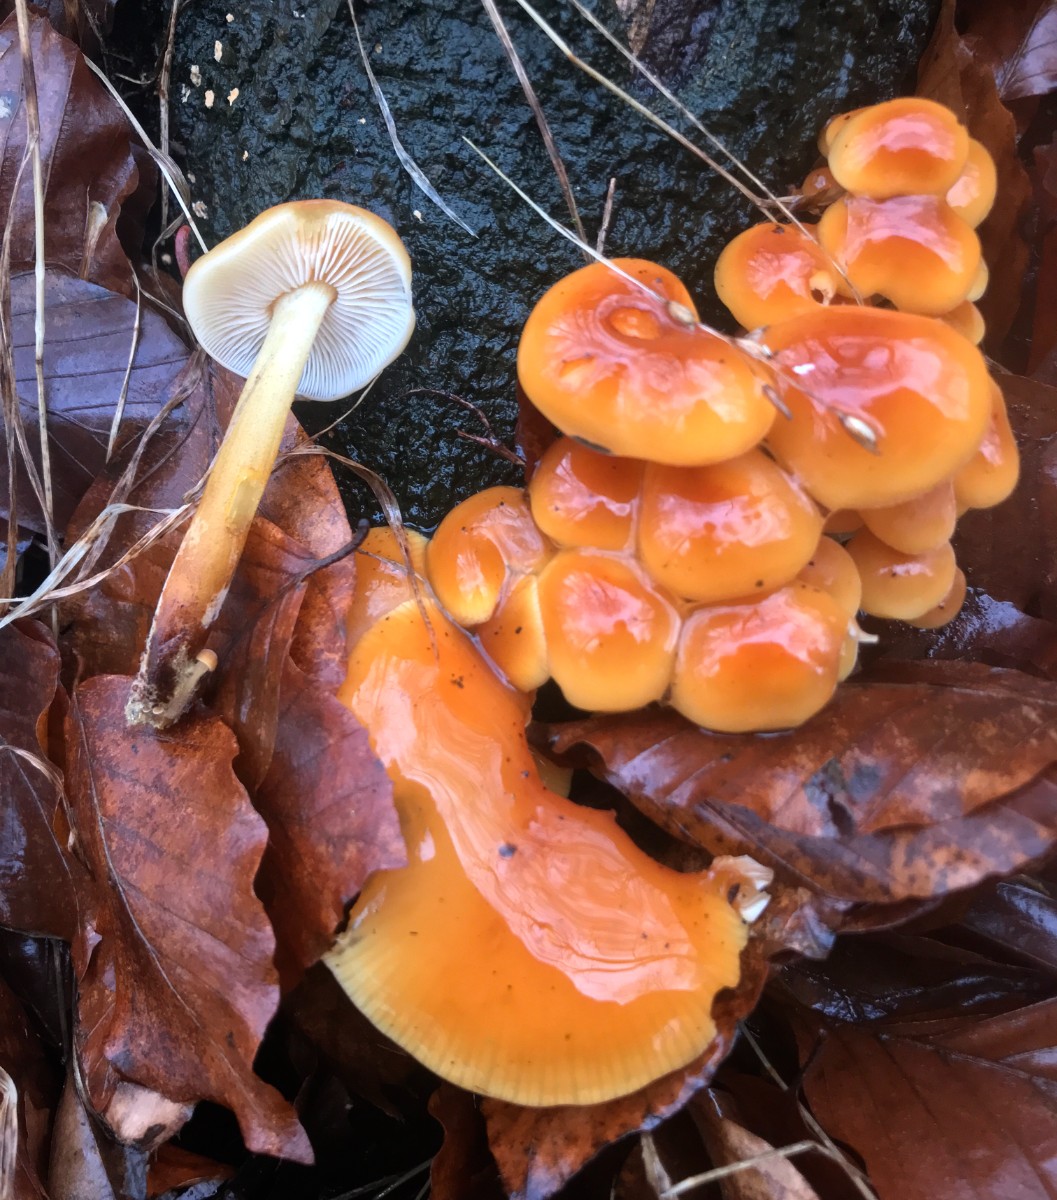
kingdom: Fungi
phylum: Basidiomycota
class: Agaricomycetes
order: Agaricales
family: Physalacriaceae
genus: Flammulina
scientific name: Flammulina velutipes
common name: gul fløjlsfod
